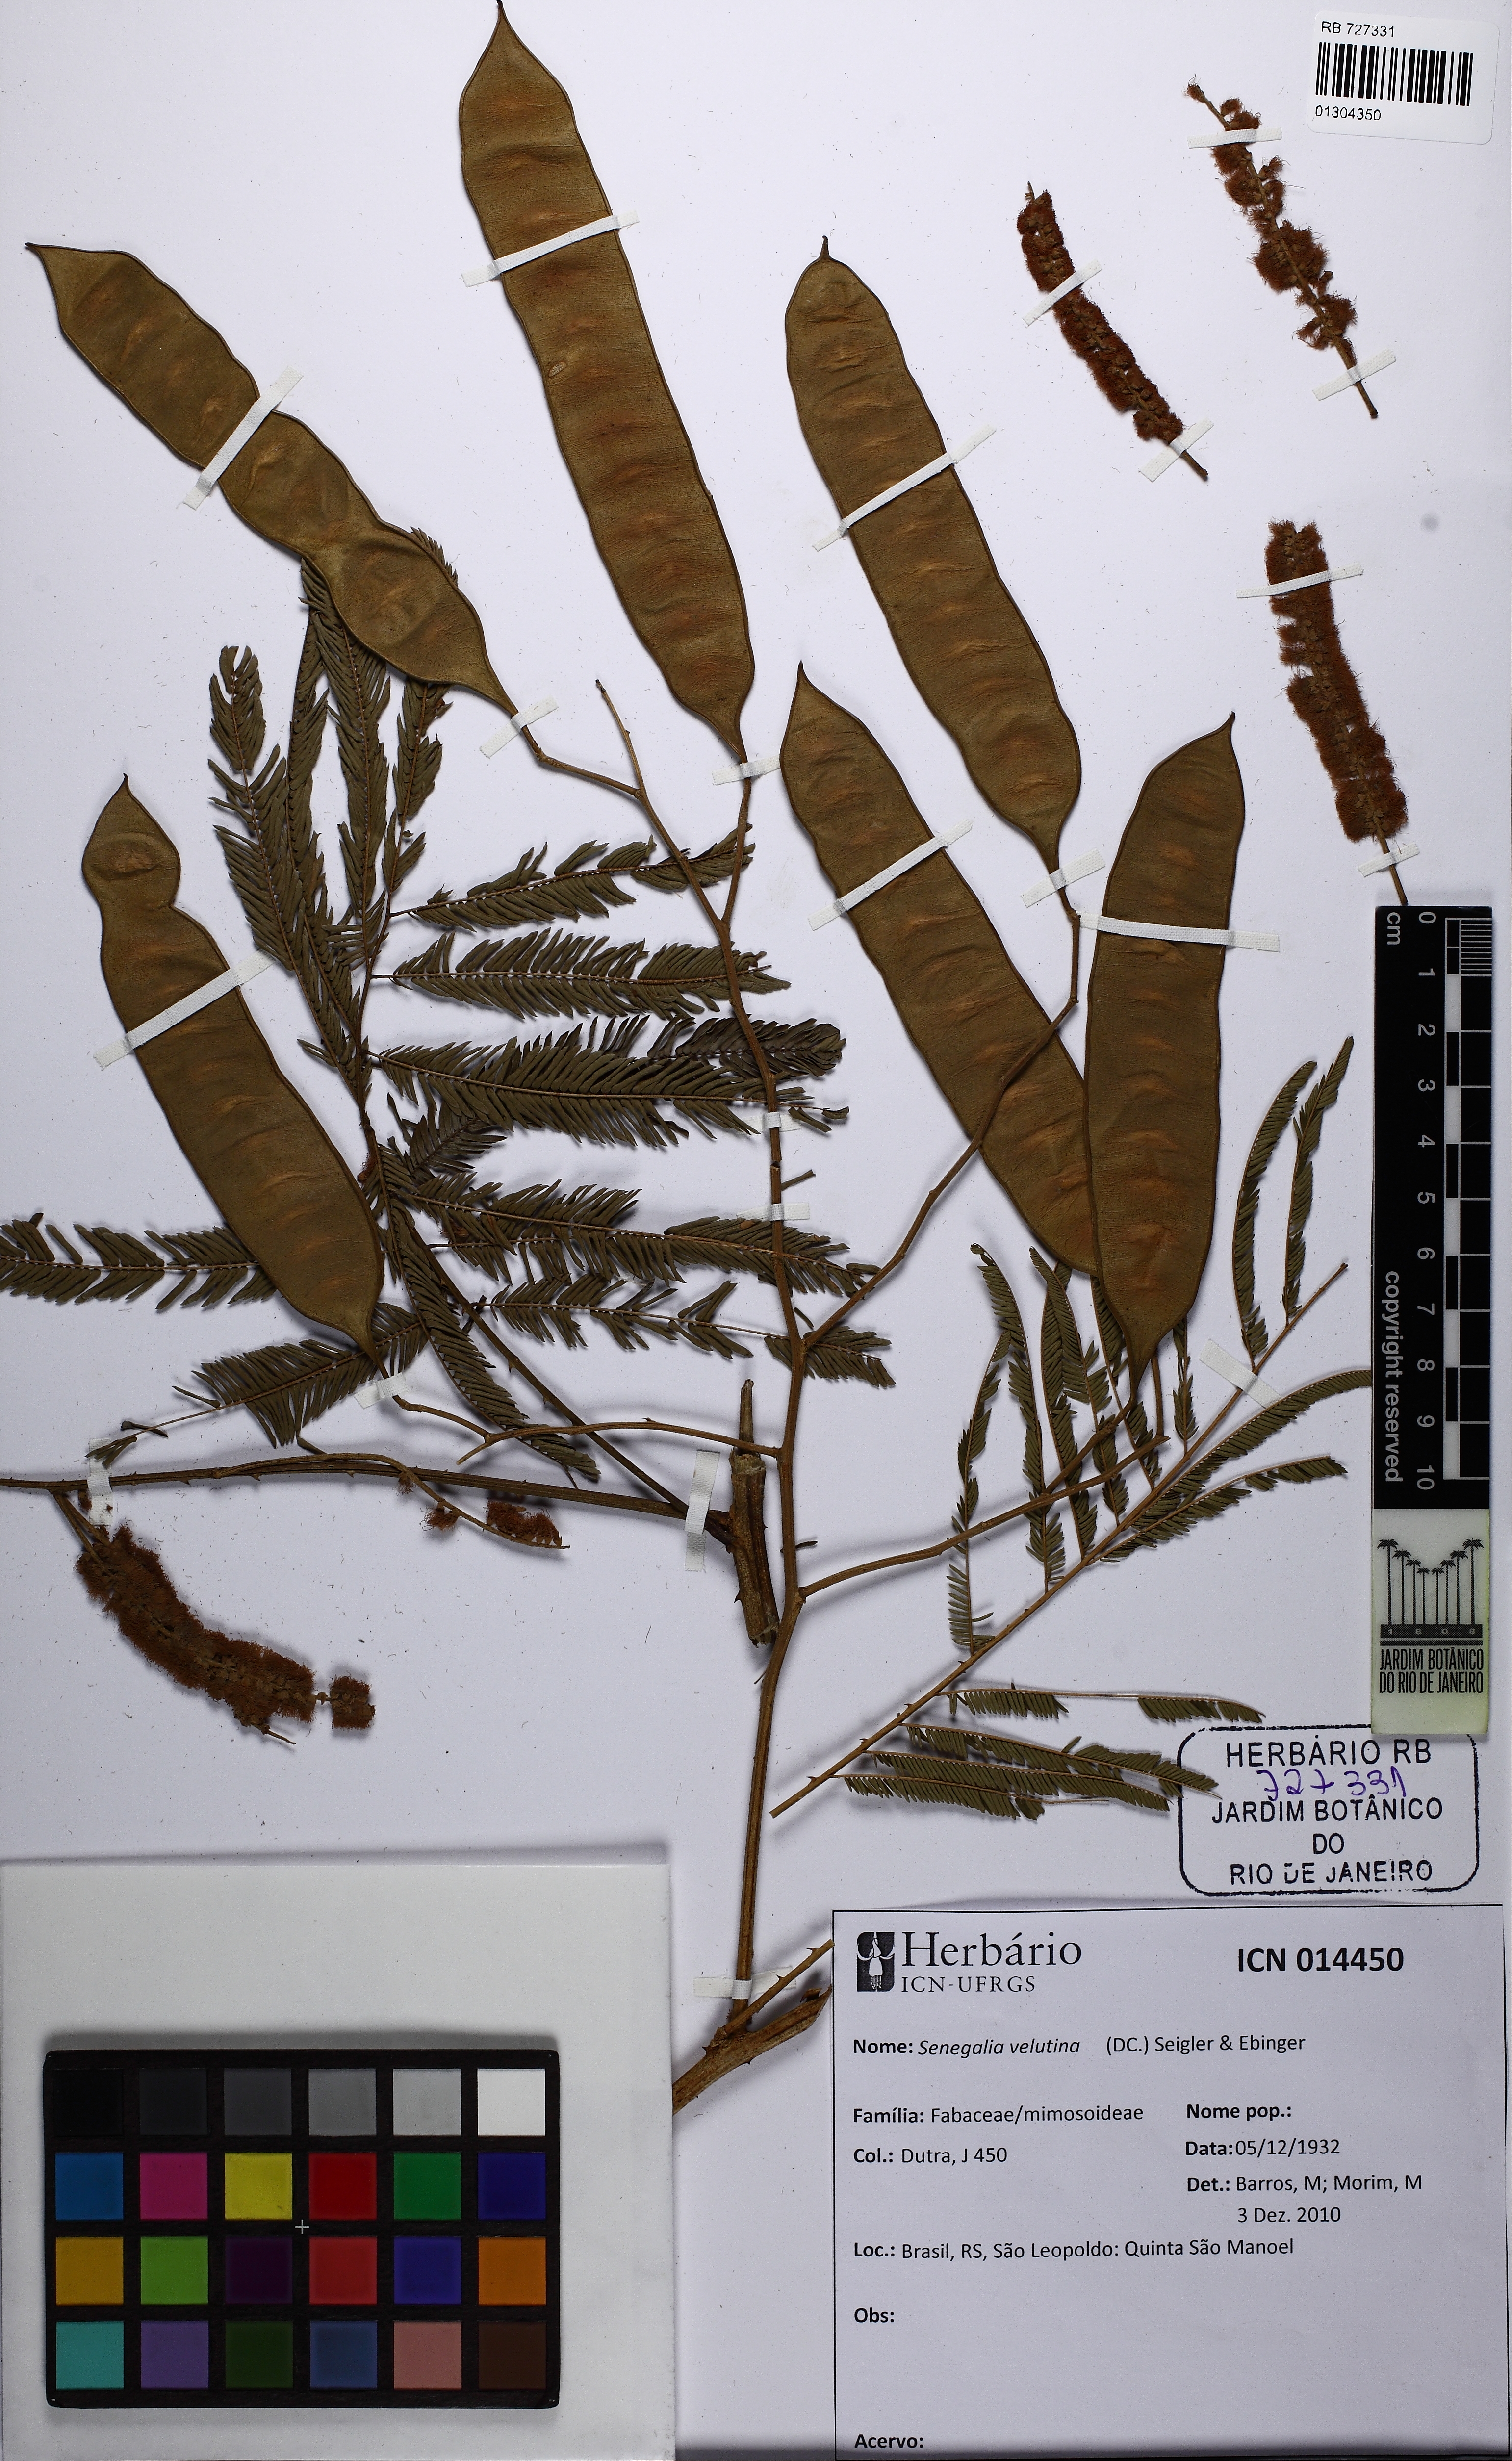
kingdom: Plantae
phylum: Tracheophyta
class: Magnoliopsida
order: Fabales
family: Fabaceae
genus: Senegalia
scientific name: Senegalia velutina
